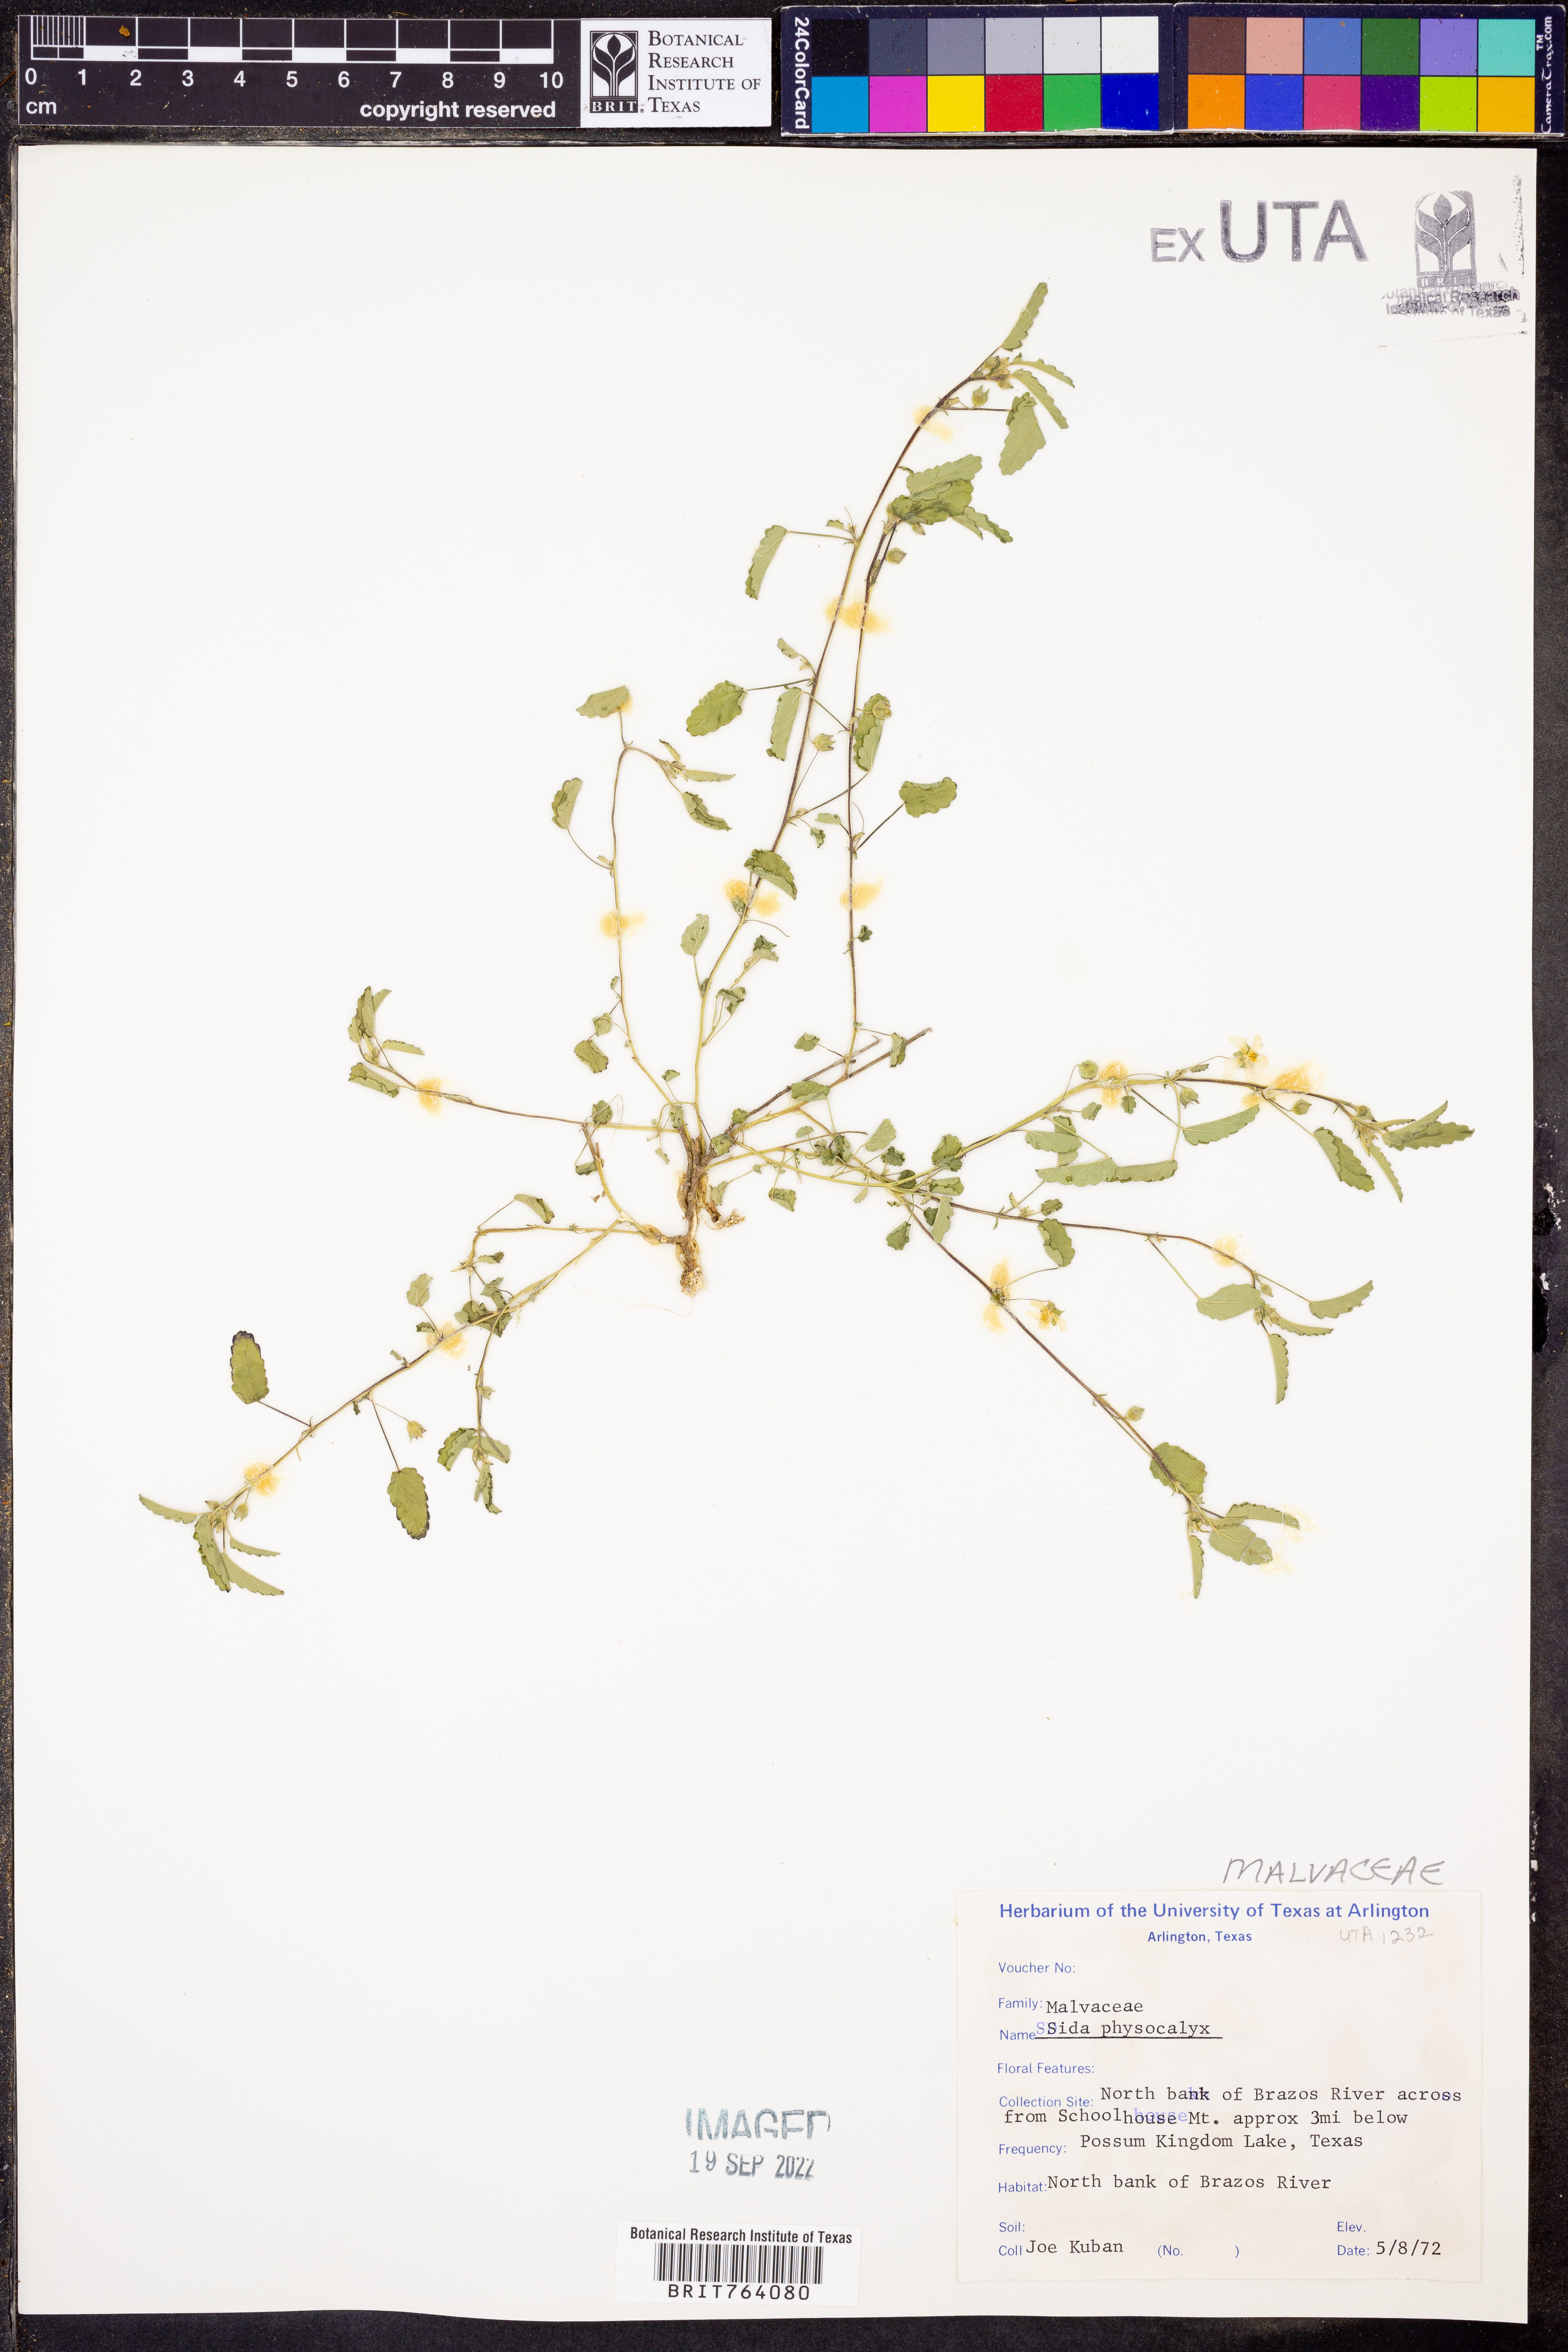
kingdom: Plantae
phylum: Tracheophyta
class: Magnoliopsida
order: Malvales
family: Malvaceae
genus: Rhynchosida
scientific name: Rhynchosida physocalyx
